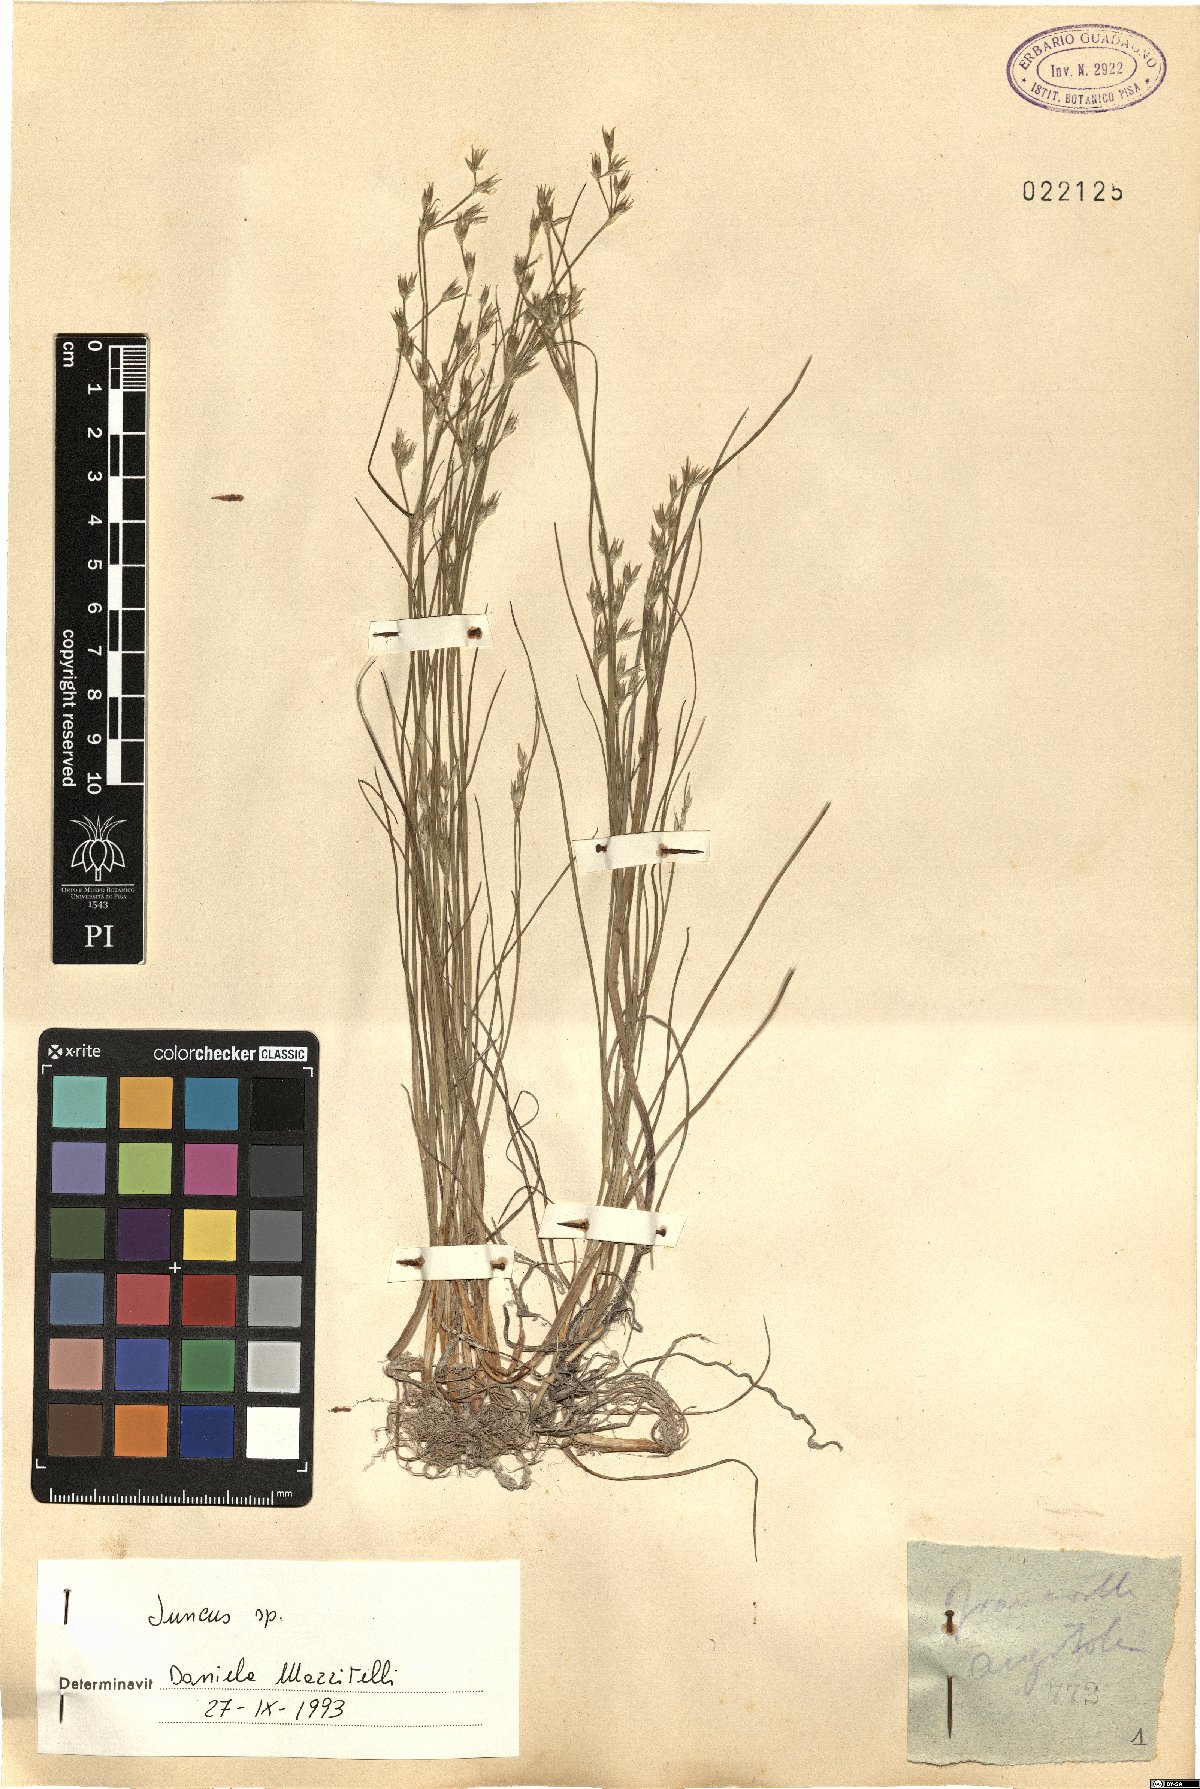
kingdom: Plantae
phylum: Tracheophyta
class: Liliopsida
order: Poales
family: Juncaceae
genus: Juncus
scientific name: Juncus
